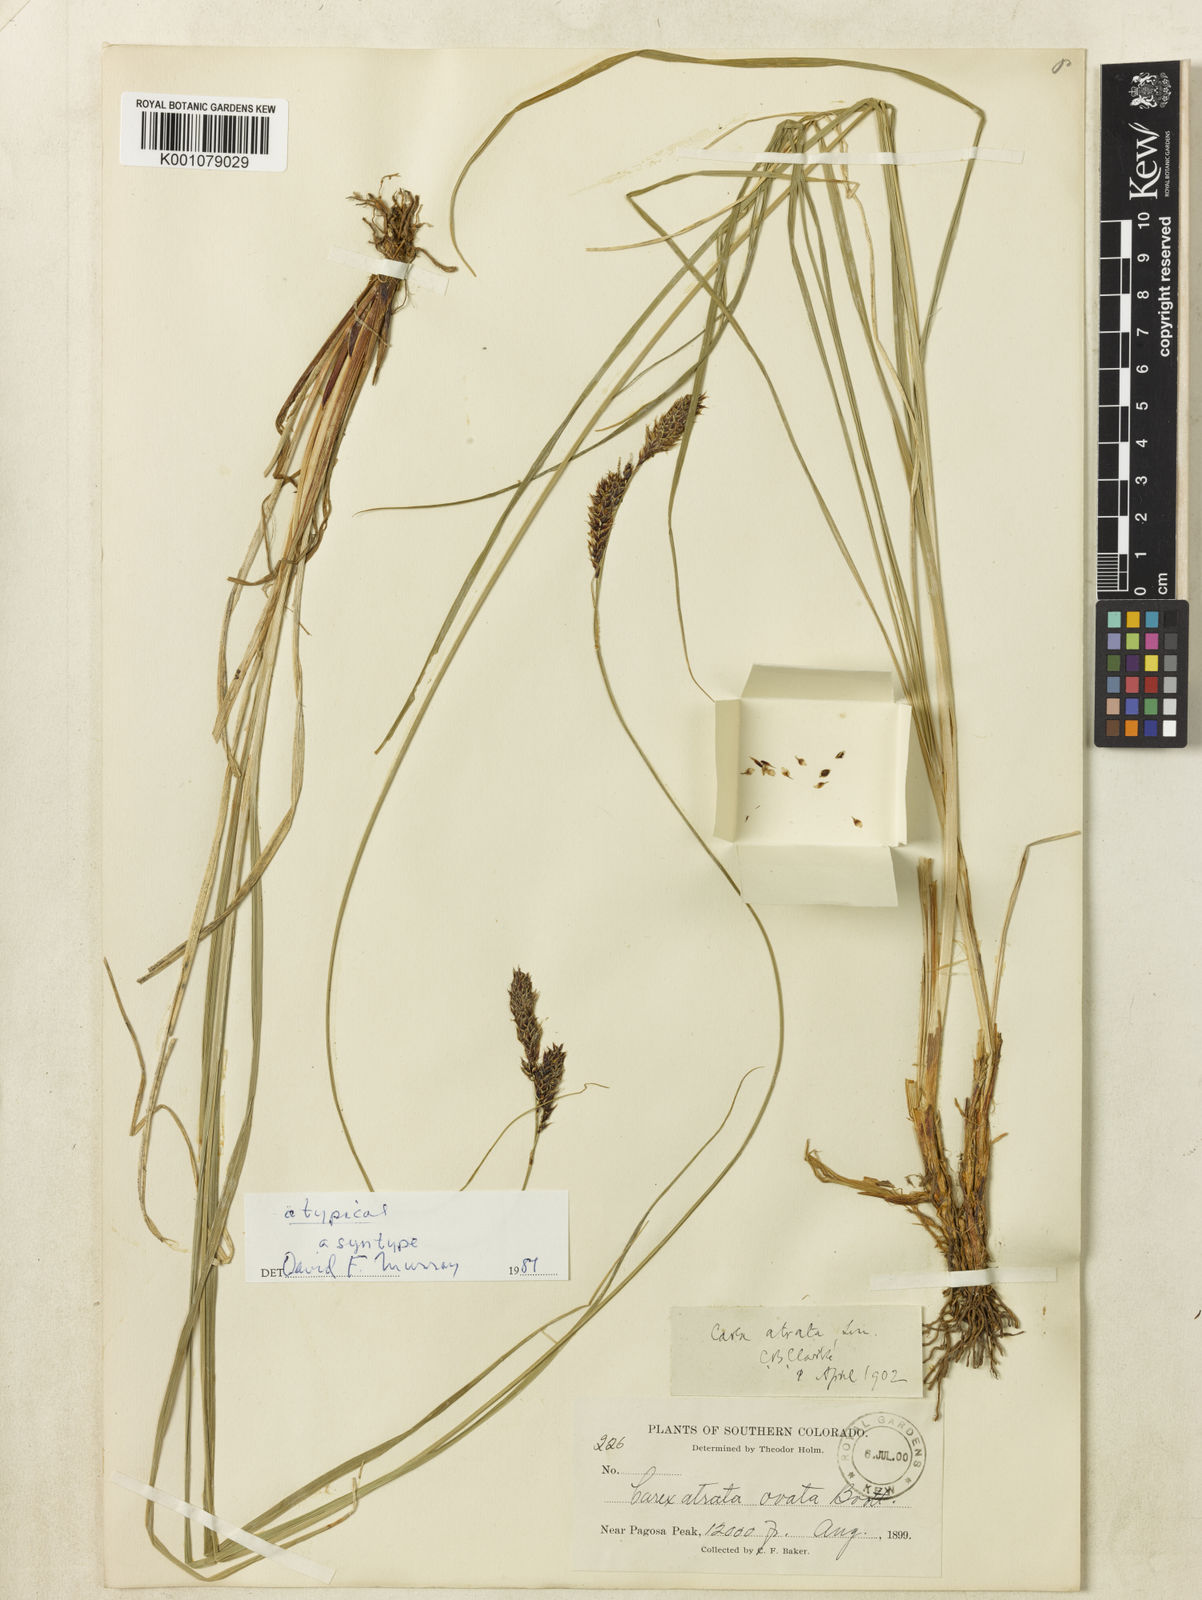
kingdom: Plantae
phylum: Tracheophyta
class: Liliopsida
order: Poales
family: Cyperaceae
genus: Carex
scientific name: Carex chalciolepis
